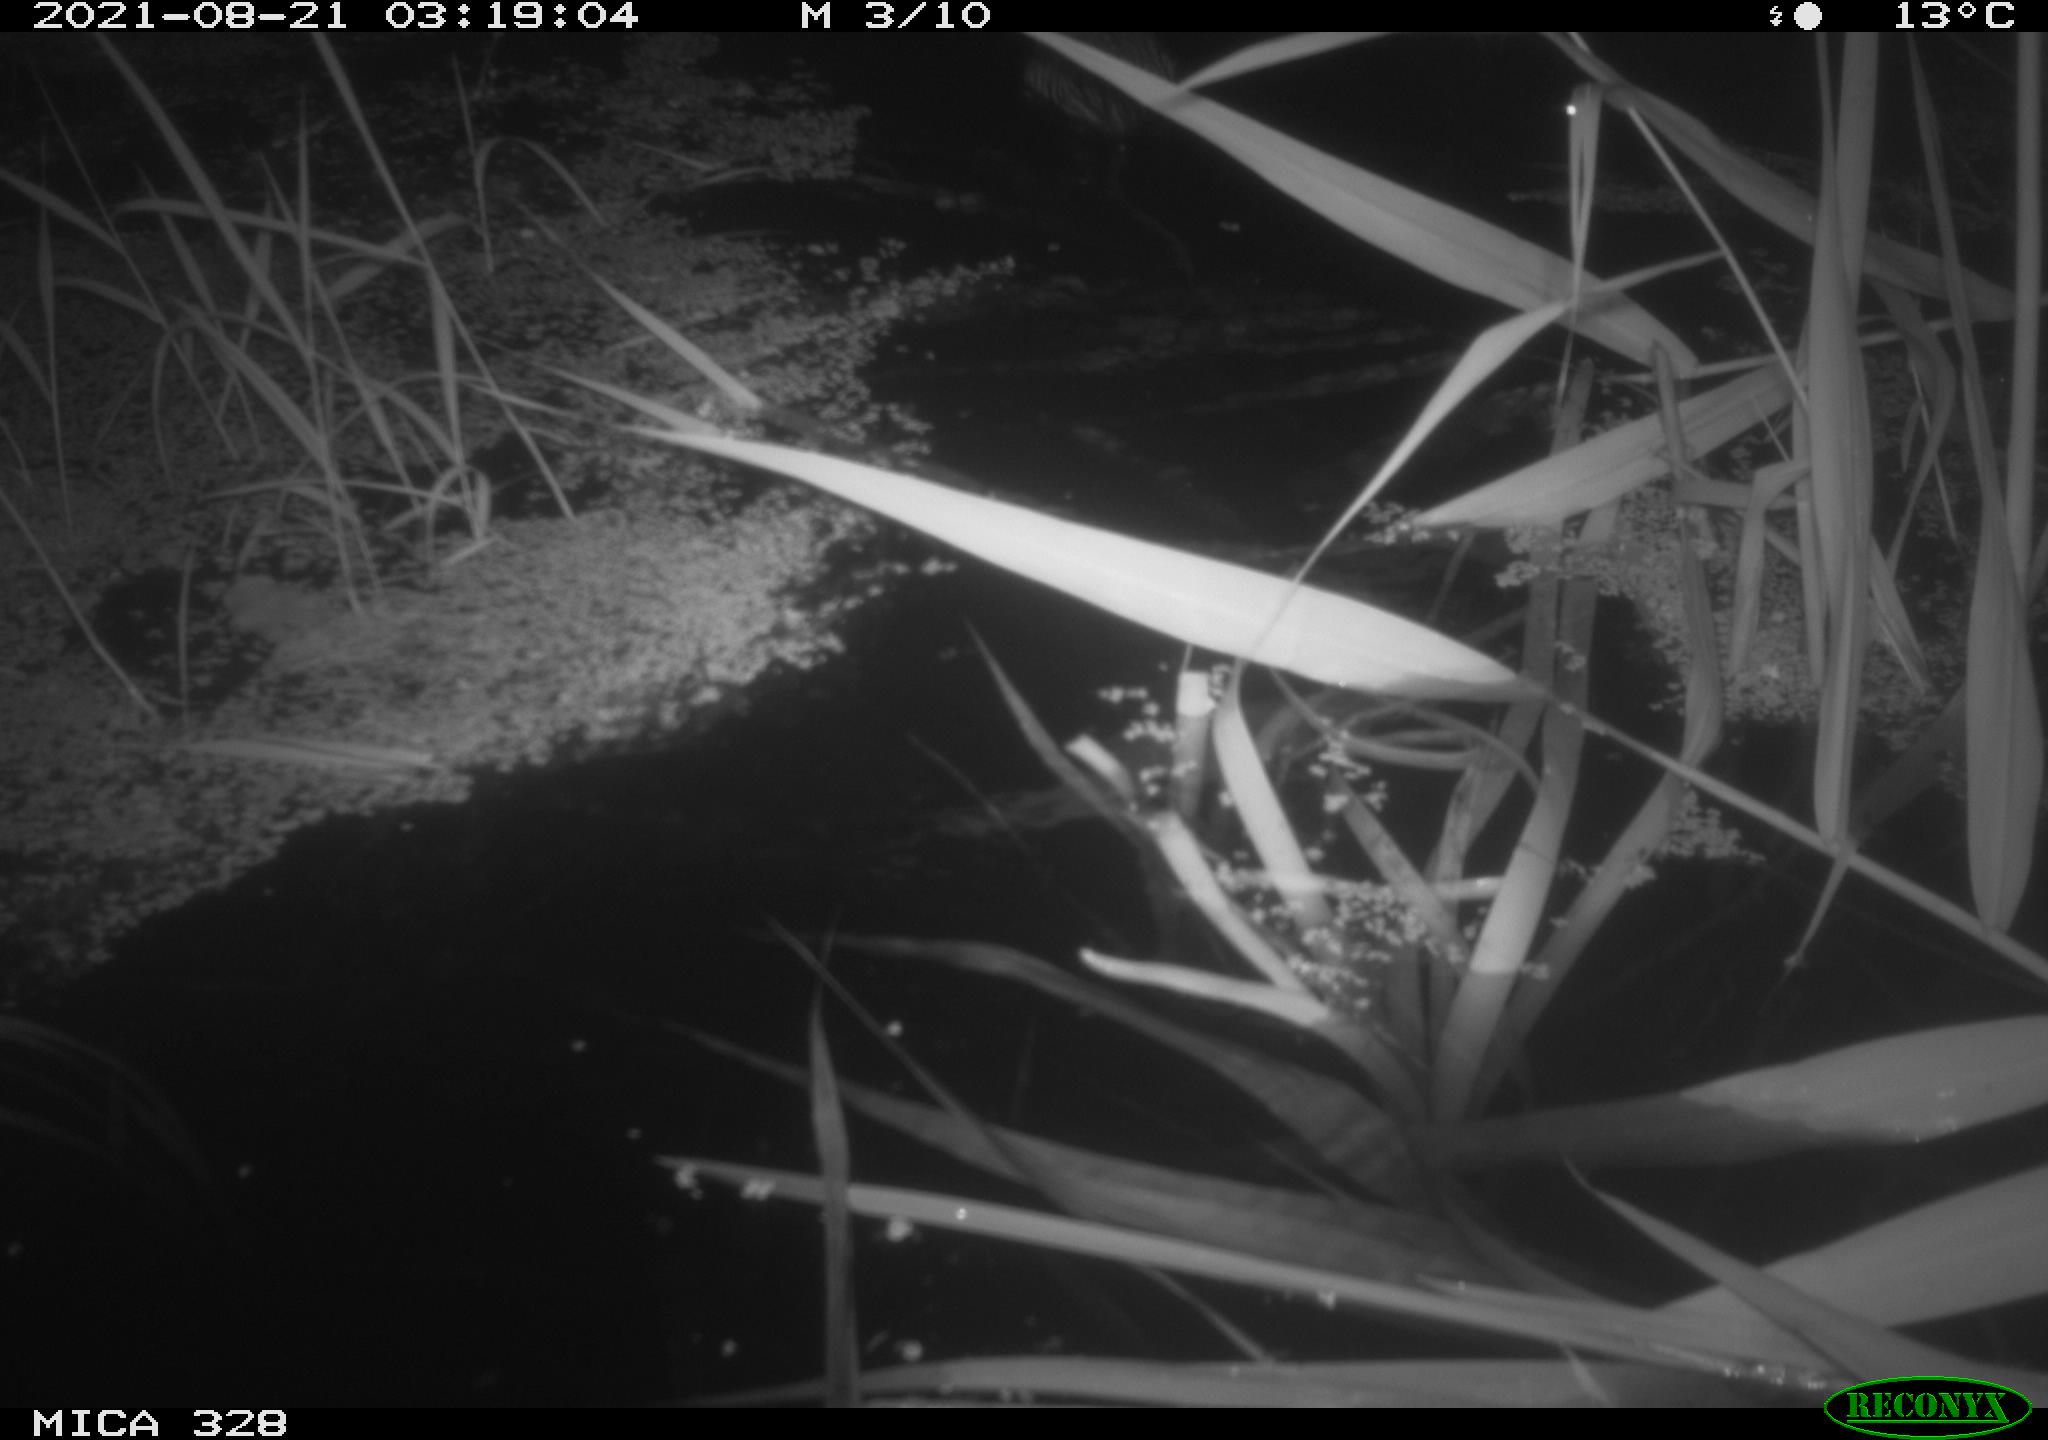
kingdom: Animalia
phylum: Chordata
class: Mammalia
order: Rodentia
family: Cricetidae
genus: Ondatra
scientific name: Ondatra zibethicus
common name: Muskrat
